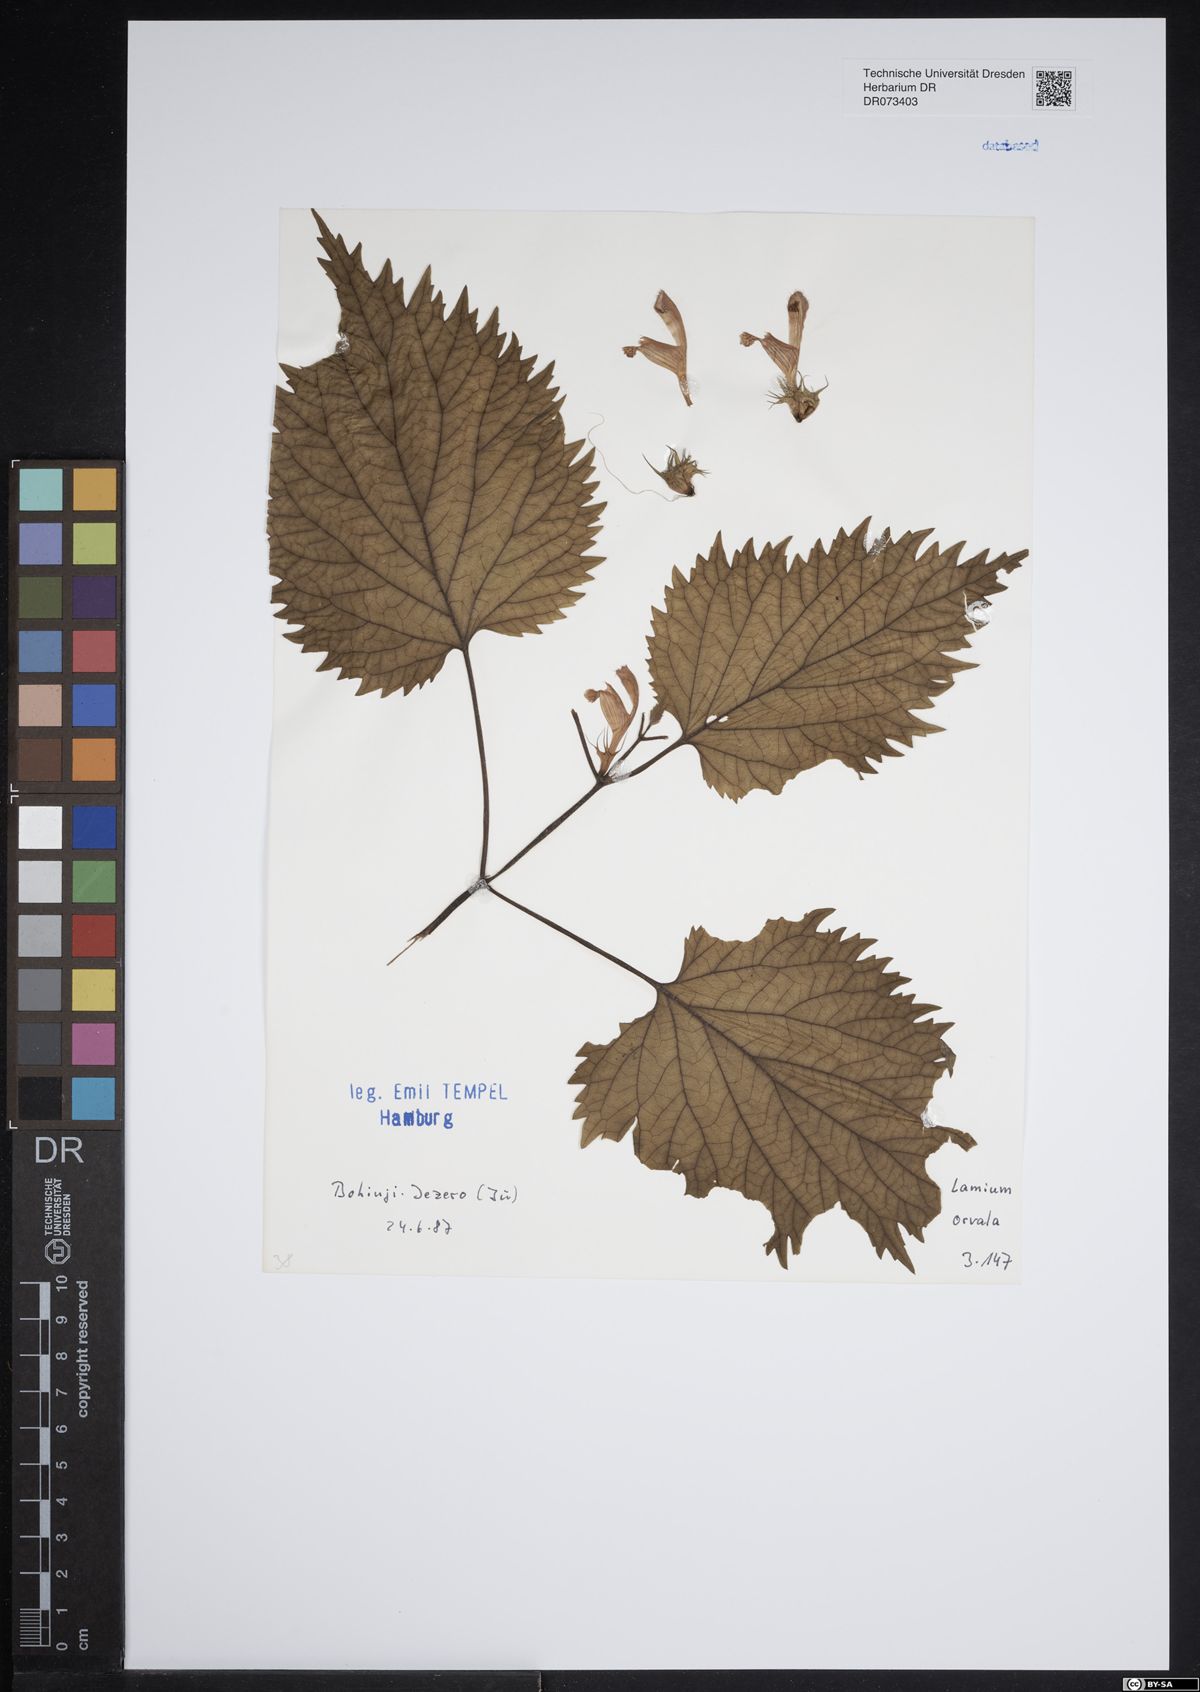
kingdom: Plantae
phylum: Tracheophyta
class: Magnoliopsida
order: Lamiales
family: Lamiaceae
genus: Lamium
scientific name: Lamium orvala
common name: Balm-leaved archangel
